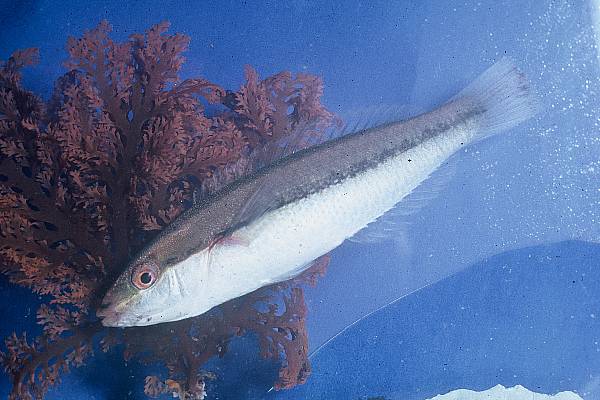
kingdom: Animalia
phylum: Chordata
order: Perciformes
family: Labridae
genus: Stethojulis
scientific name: Stethojulis interrupta
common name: Cutribbon wrasse
